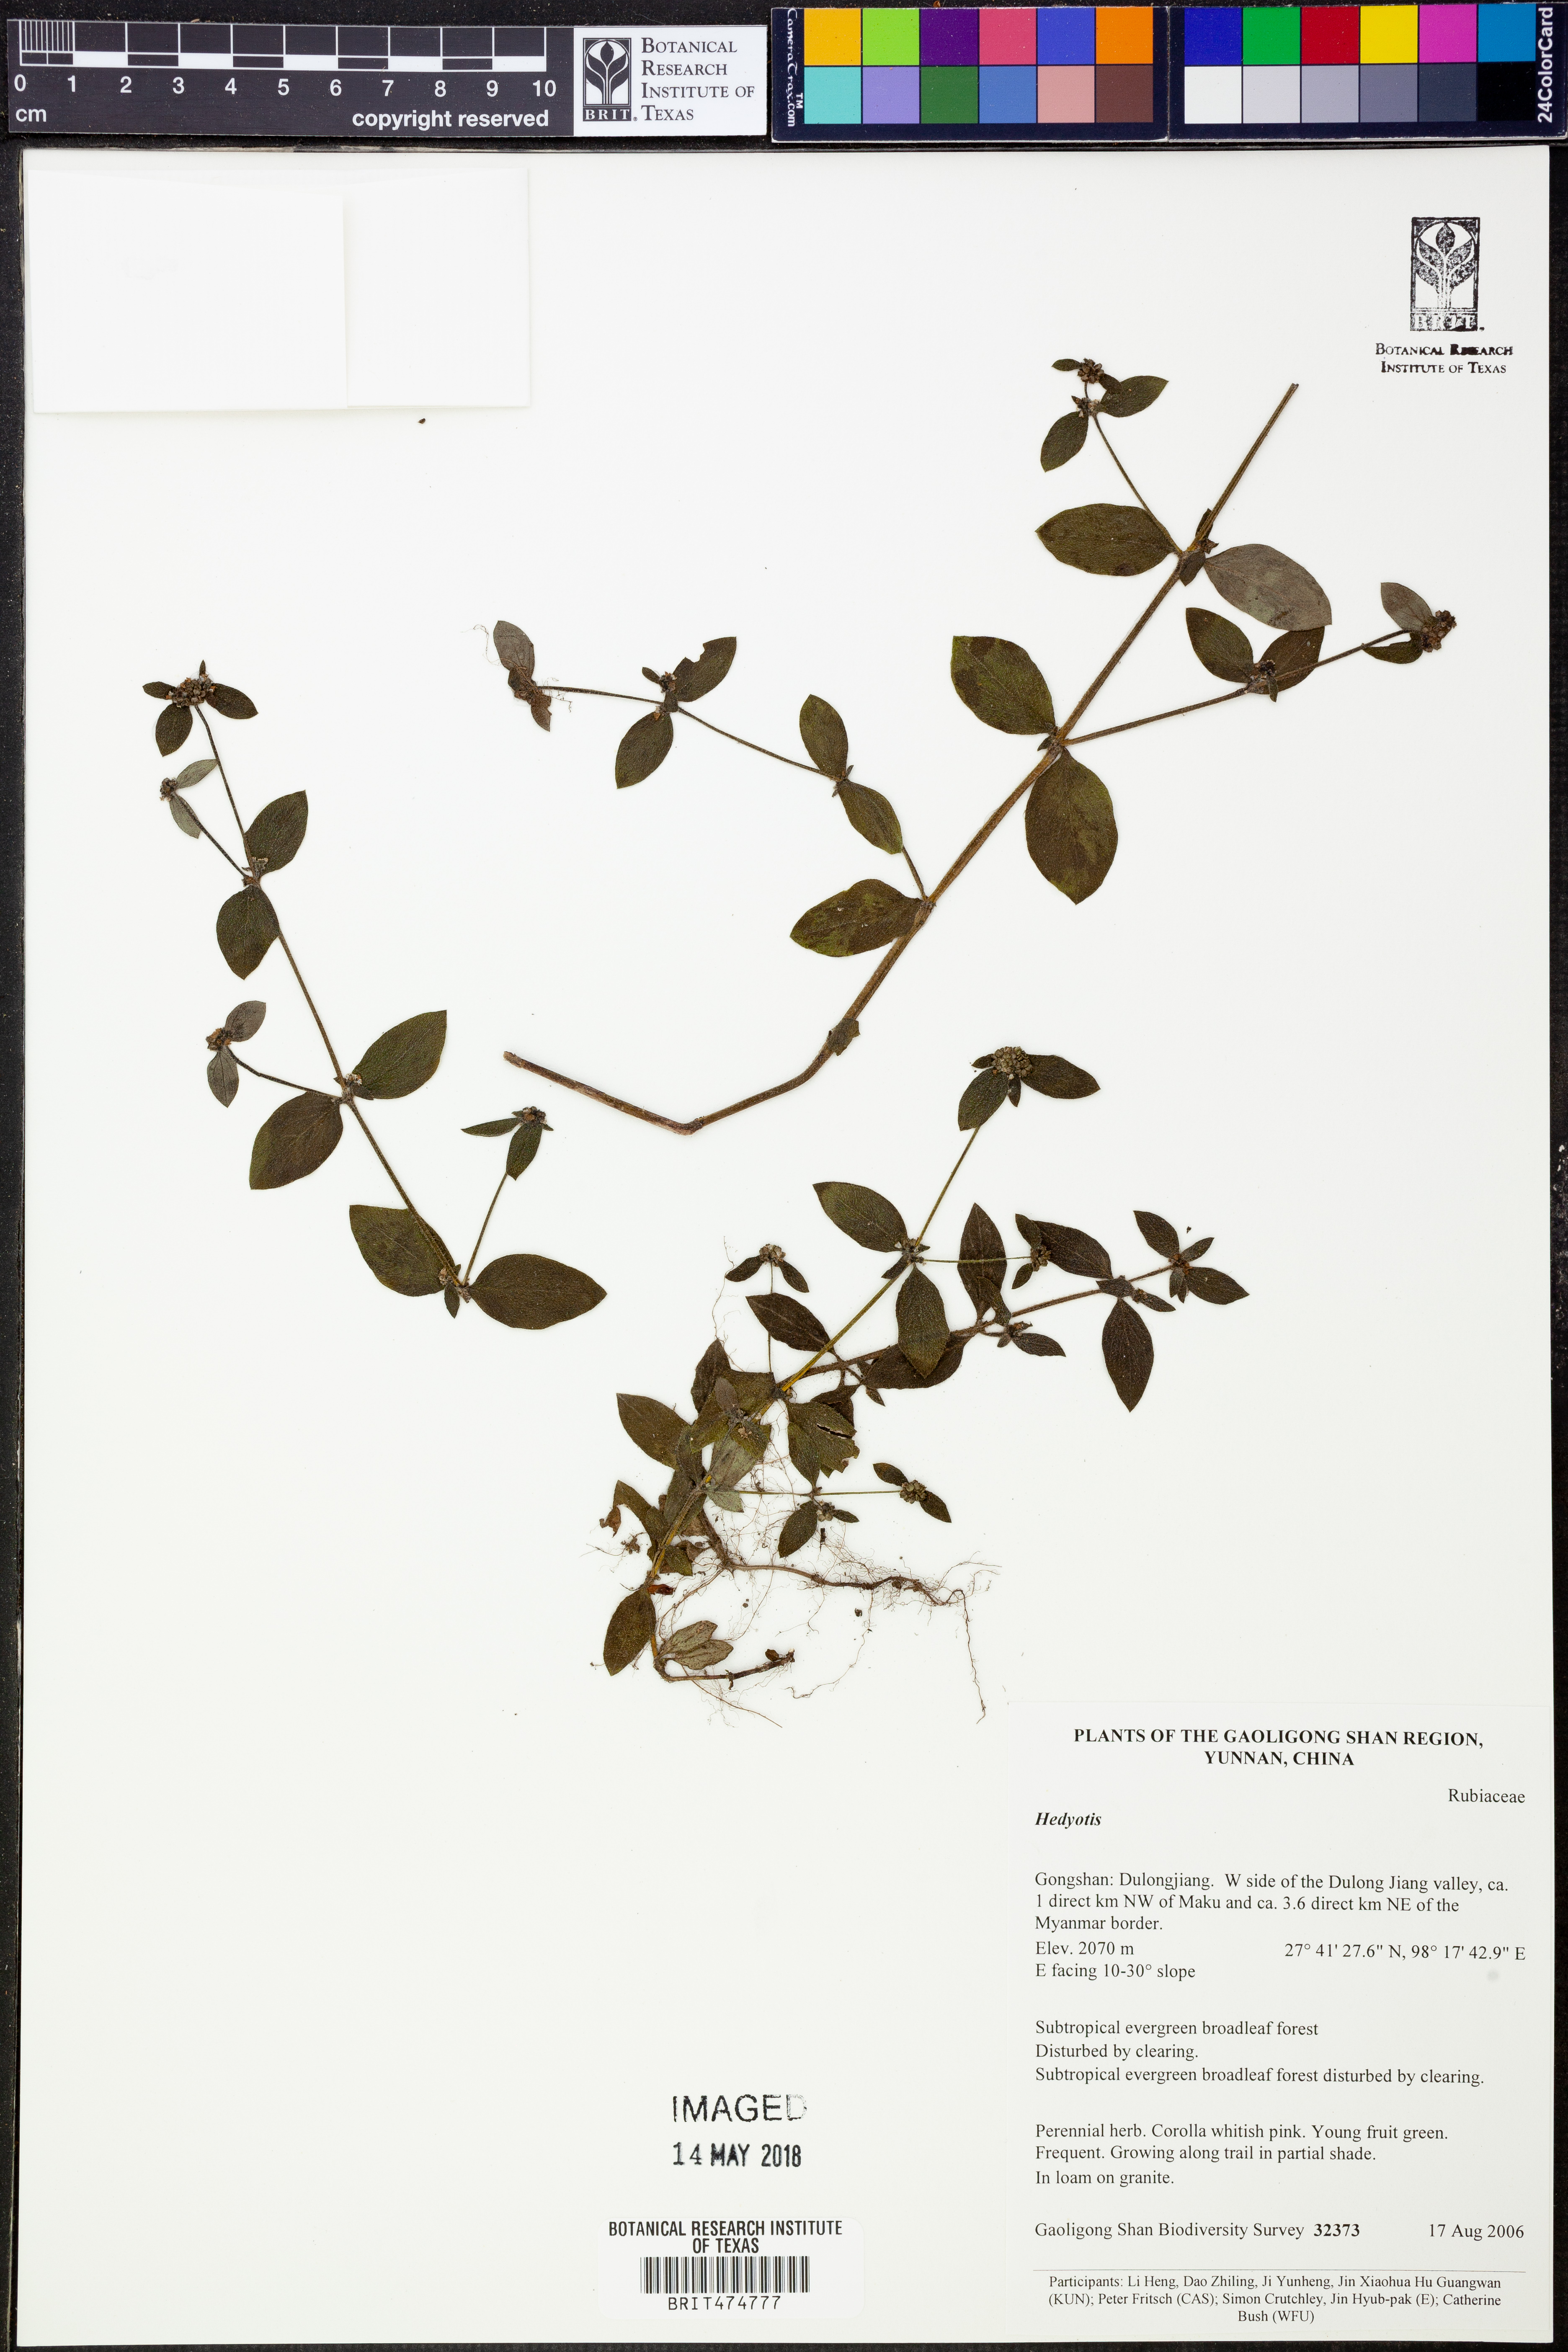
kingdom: Plantae
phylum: Tracheophyta
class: Magnoliopsida
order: Gentianales
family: Rubiaceae
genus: Hedyotis
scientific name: Hedyotis
